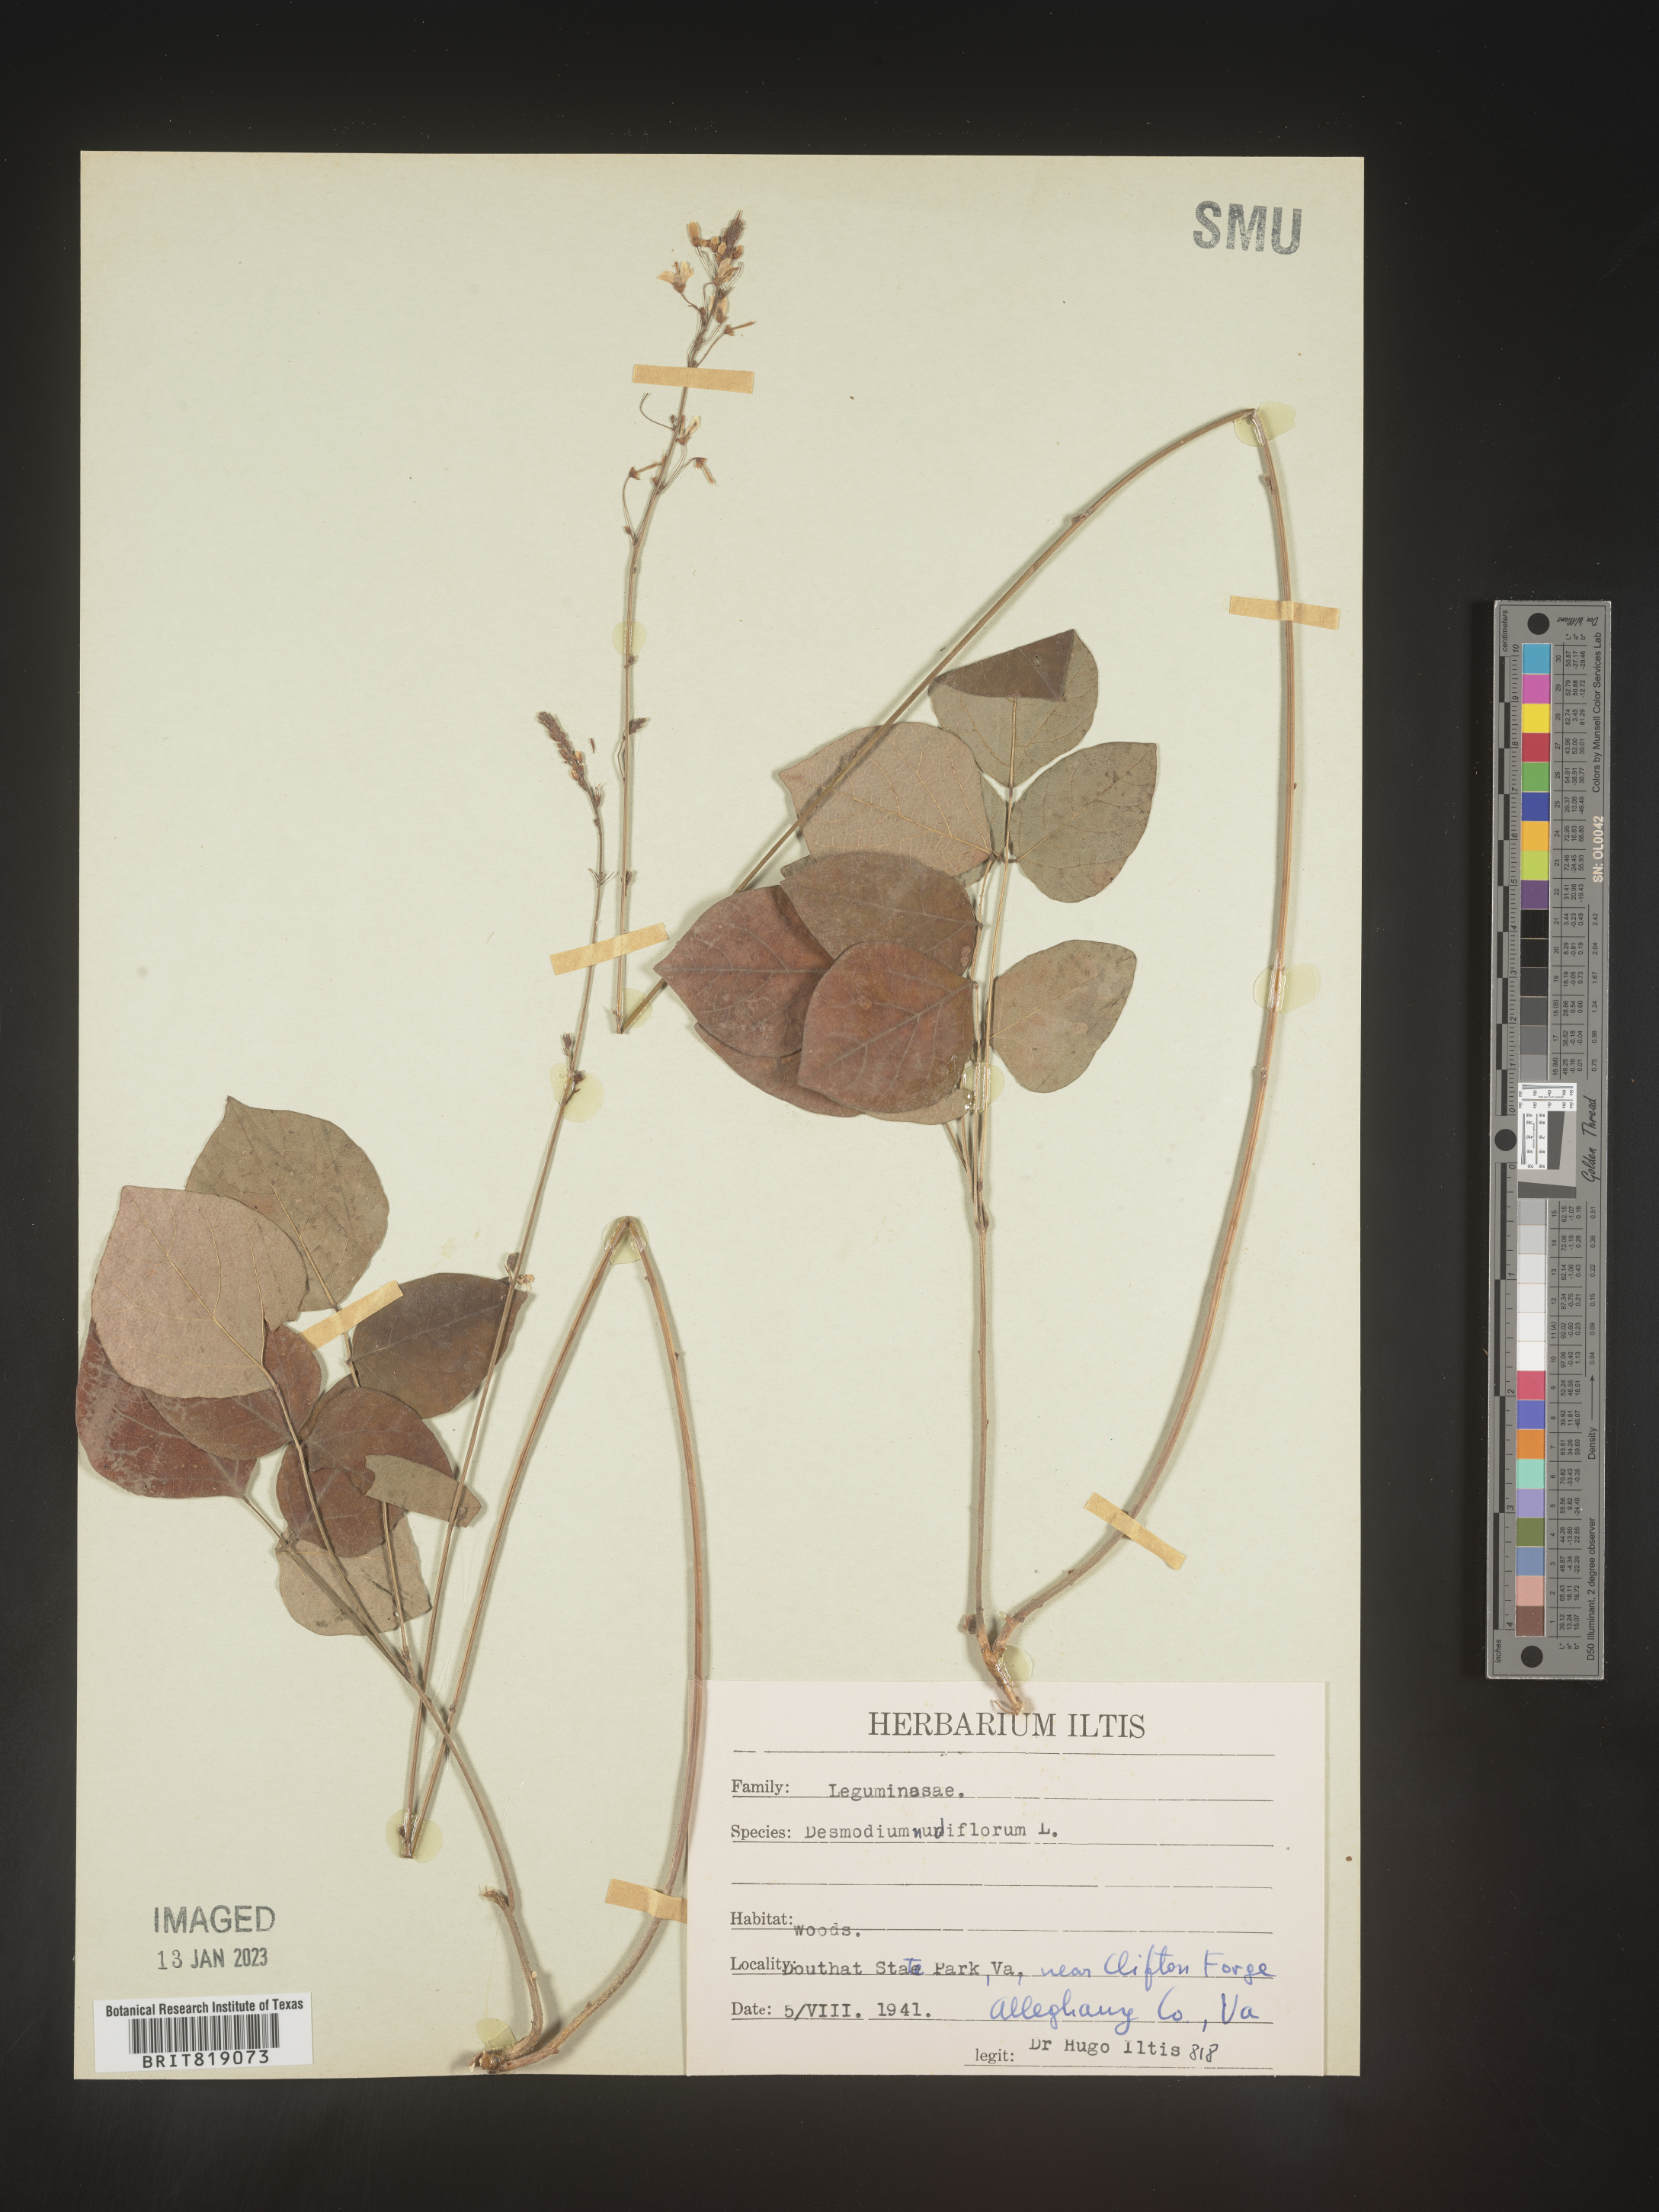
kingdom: Plantae
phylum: Tracheophyta
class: Magnoliopsida
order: Fabales
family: Fabaceae
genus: Hylodesmum
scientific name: Hylodesmum nudiflorum
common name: Bare-stemmed tick-trefoil
